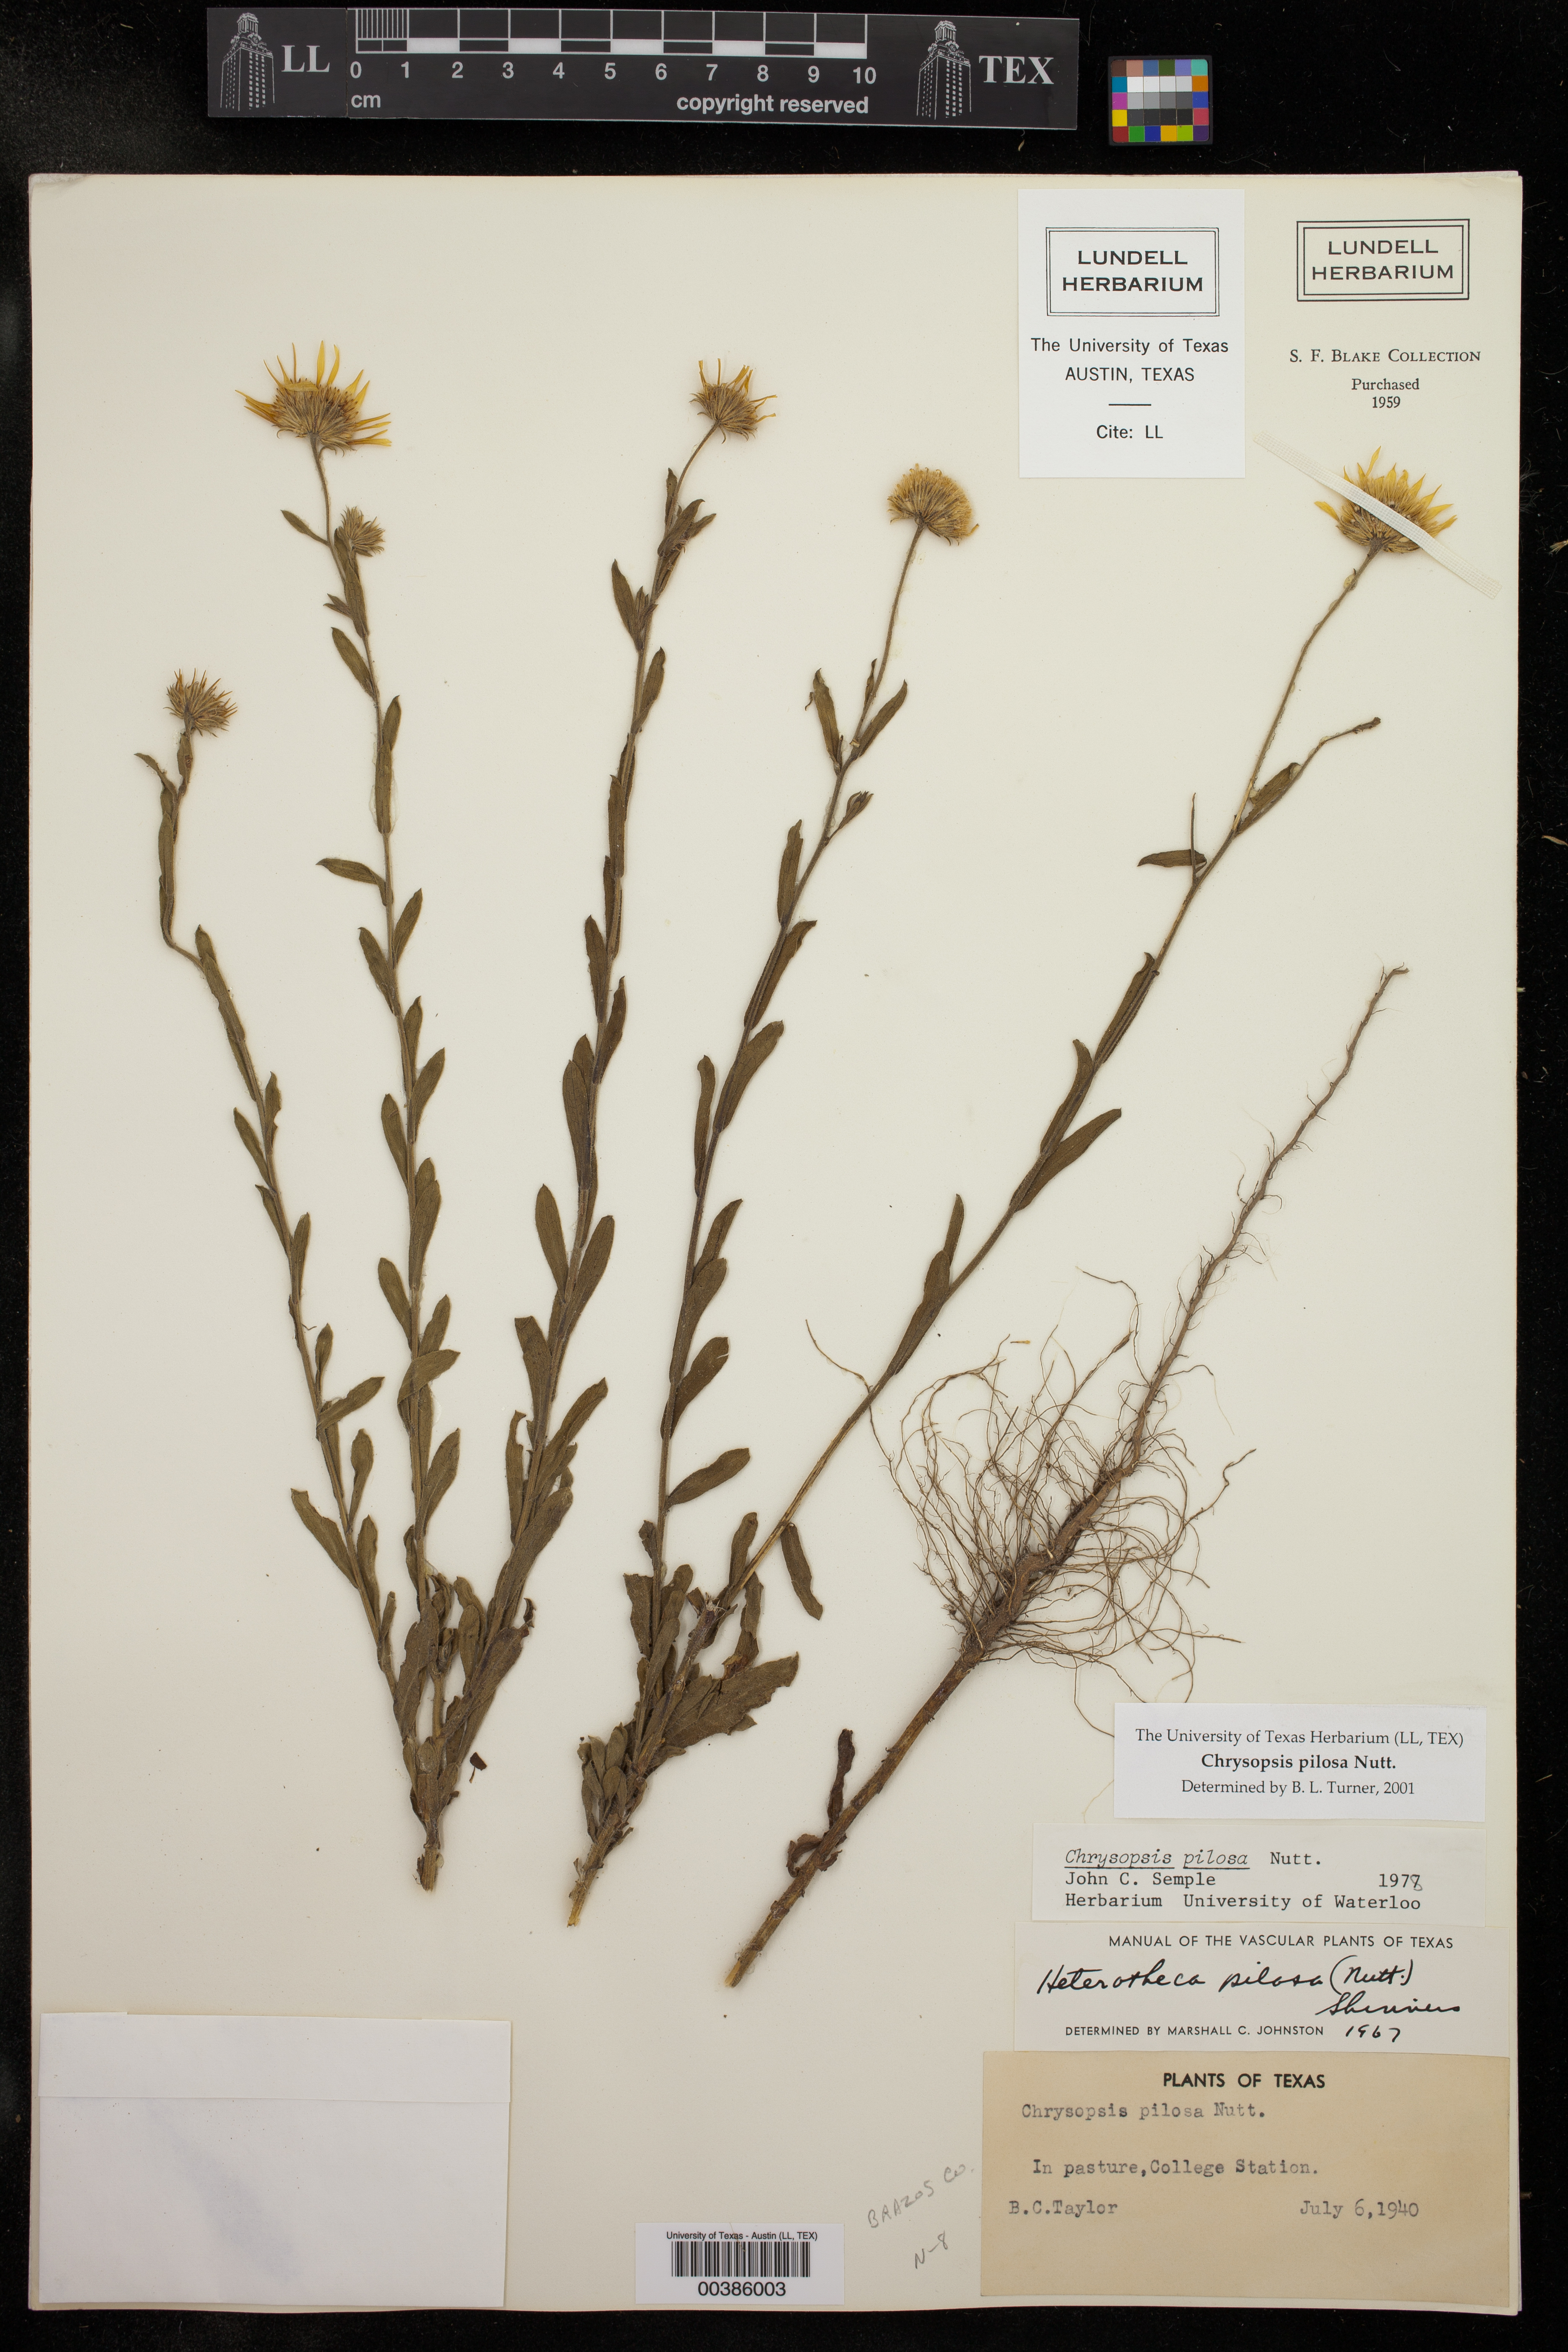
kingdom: Plantae
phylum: Tracheophyta
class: Magnoliopsida
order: Asterales
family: Asteraceae
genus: Chrysopsis
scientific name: Chrysopsis gossypina
